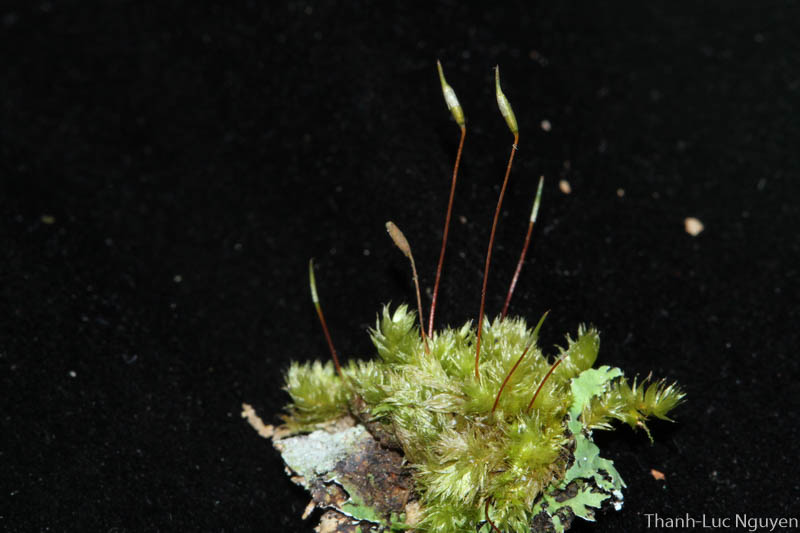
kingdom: Plantae
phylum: Bryophyta
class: Bryopsida
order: Hypnales
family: Sematophyllaceae
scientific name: Sematophyllaceae
